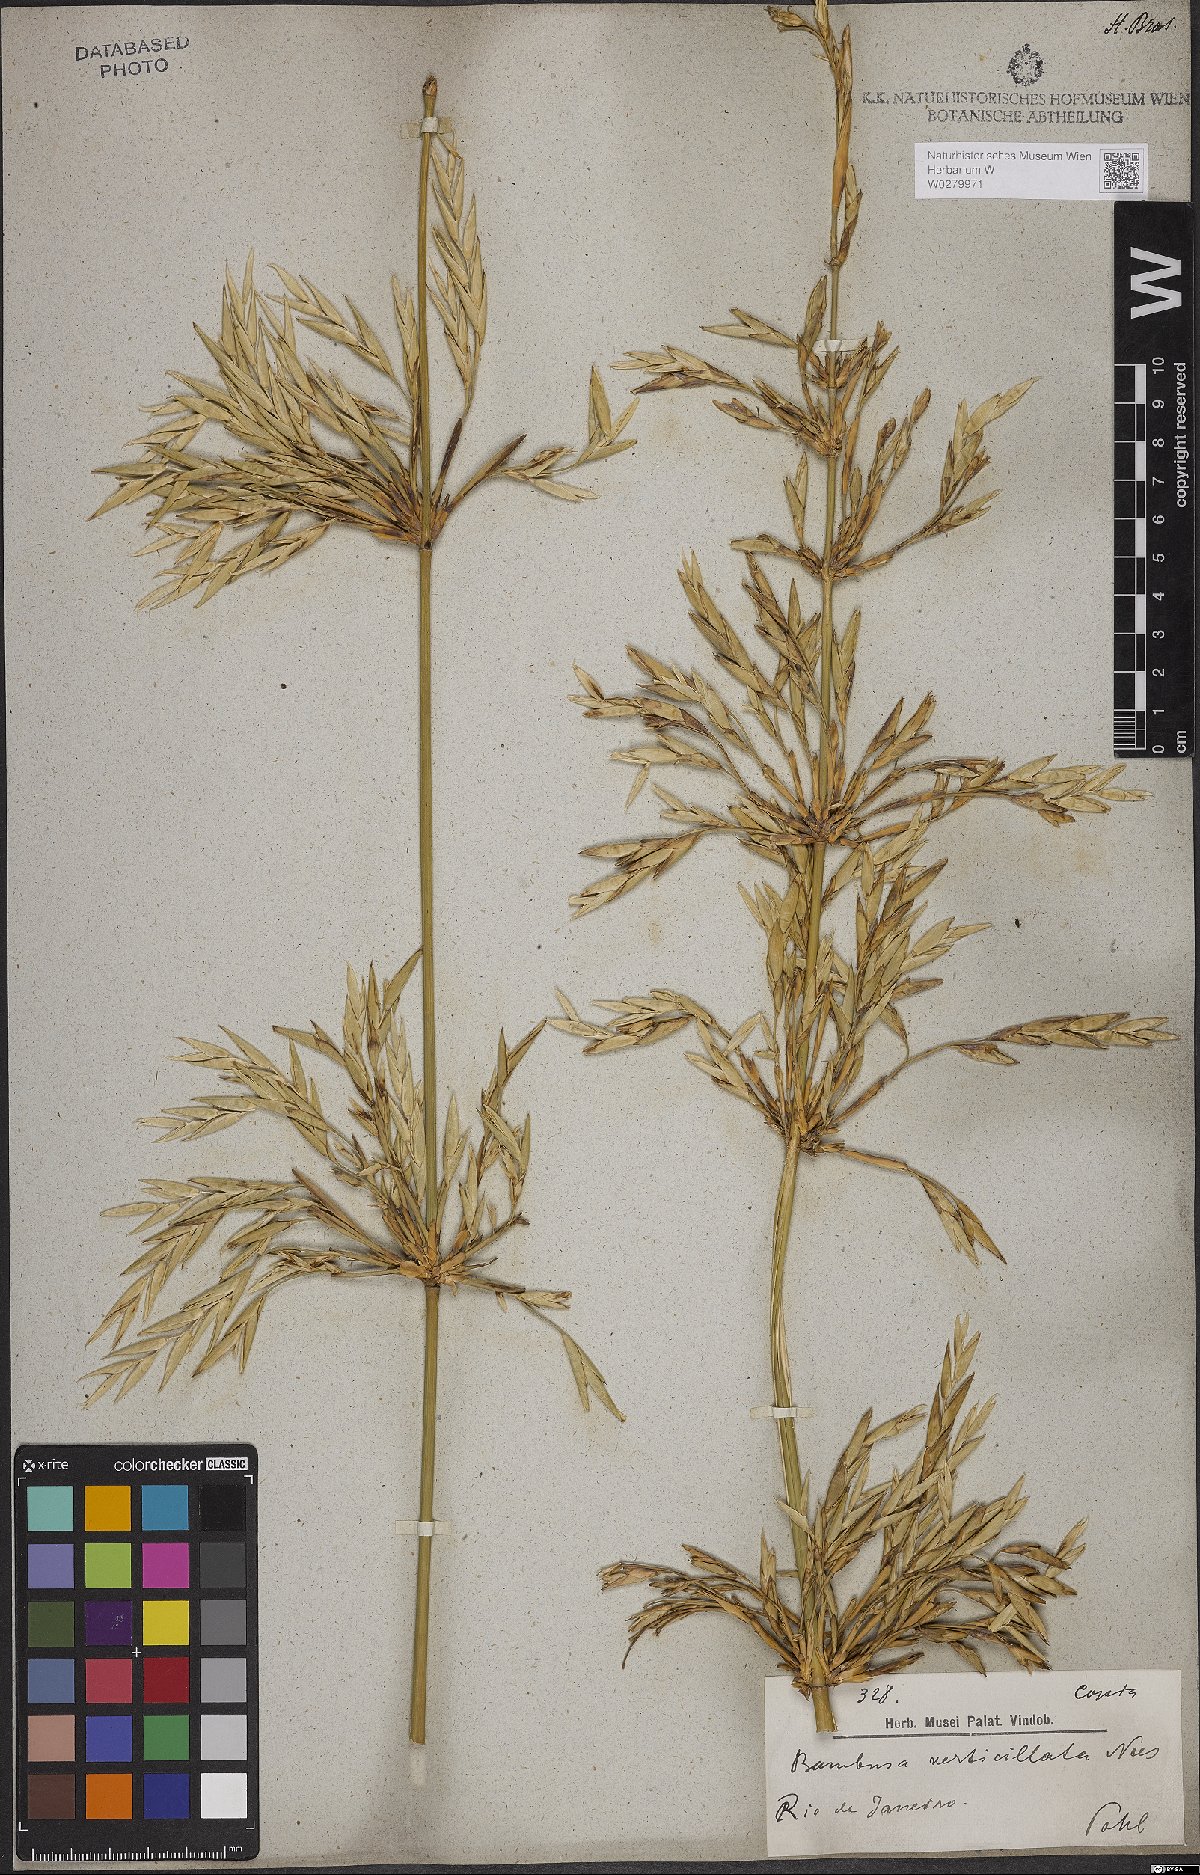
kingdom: Plantae
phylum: Tracheophyta
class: Liliopsida
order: Poales
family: Poaceae
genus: Bambusa
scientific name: Bambusa
